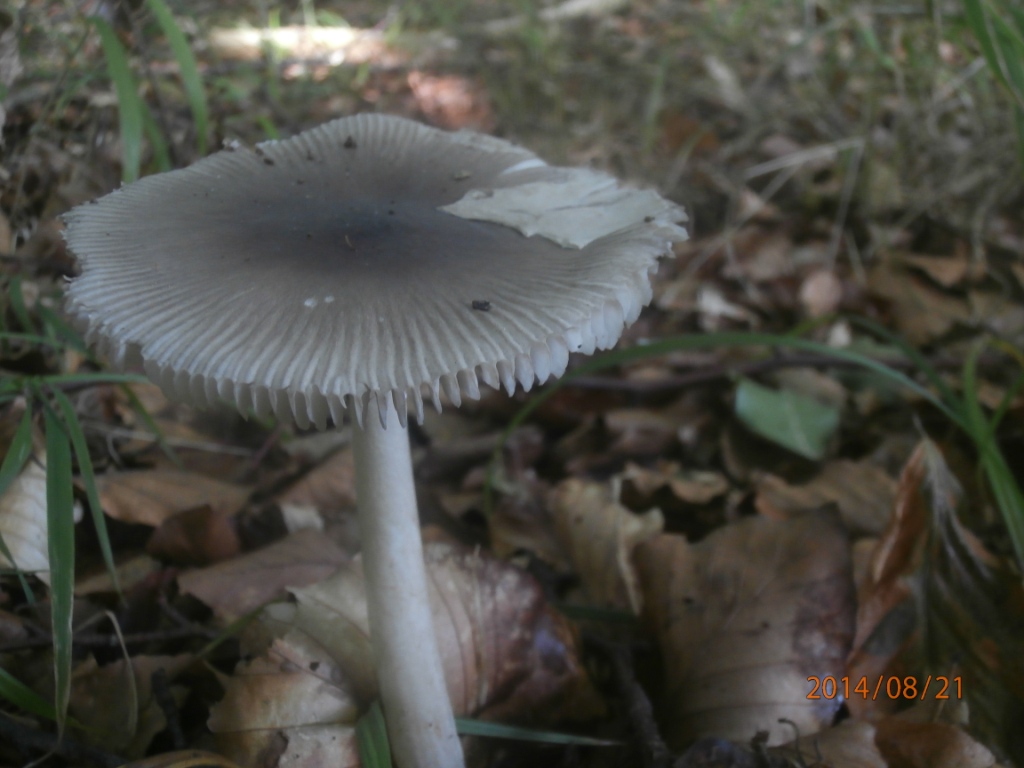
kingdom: Fungi
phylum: Basidiomycota
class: Agaricomycetes
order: Agaricales
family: Amanitaceae
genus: Amanita
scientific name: Amanita vaginata
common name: grå kam-fluesvamp
